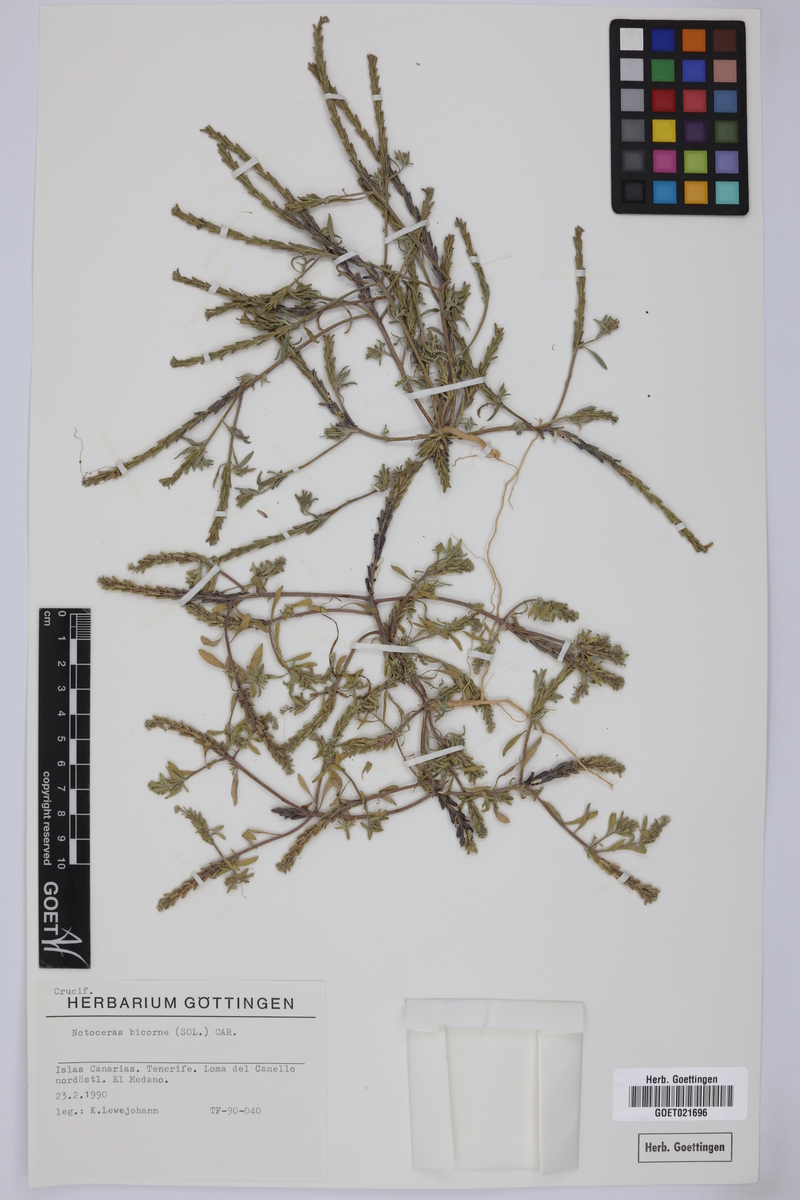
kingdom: Plantae
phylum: Tracheophyta
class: Magnoliopsida
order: Brassicales
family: Brassicaceae
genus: Notoceras
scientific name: Notoceras bicorne
